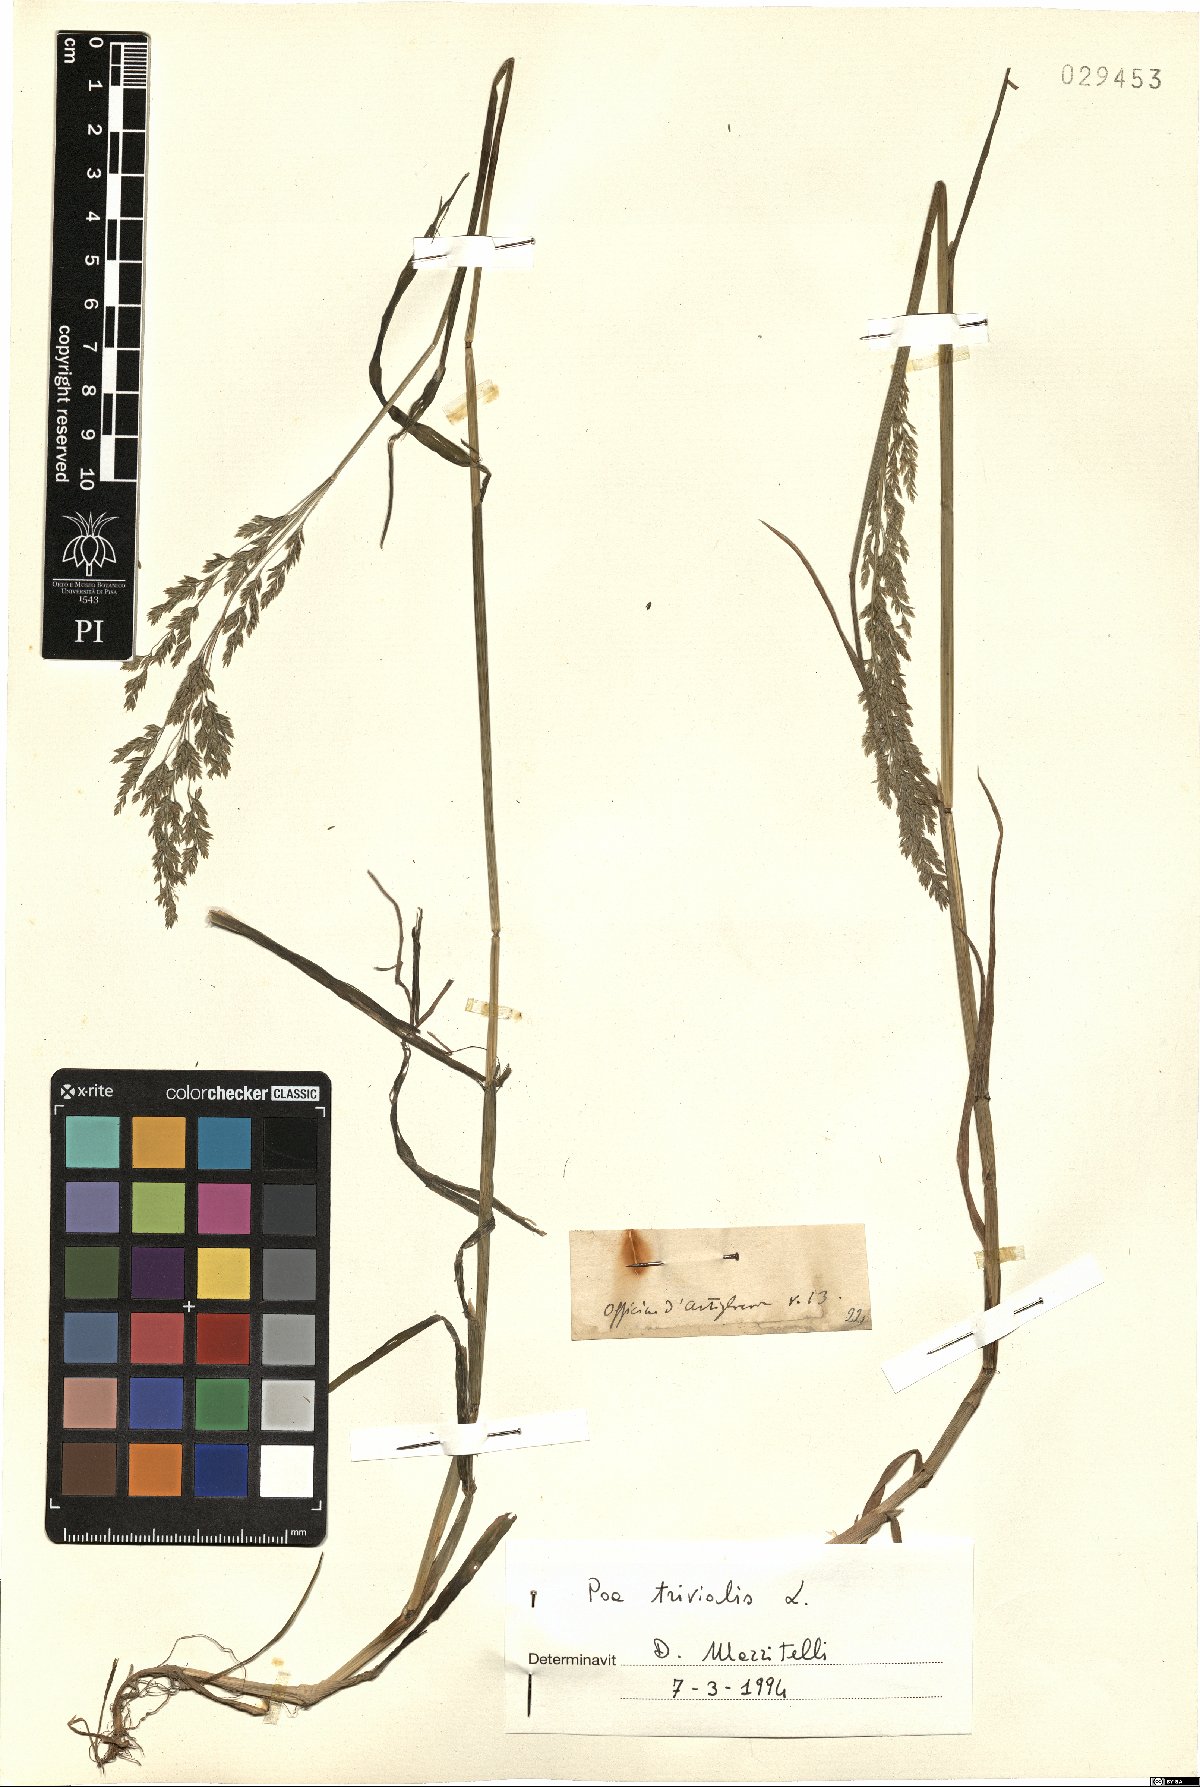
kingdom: Plantae
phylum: Tracheophyta
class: Liliopsida
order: Poales
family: Poaceae
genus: Poa
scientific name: Poa trivialis
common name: Rough bluegrass
